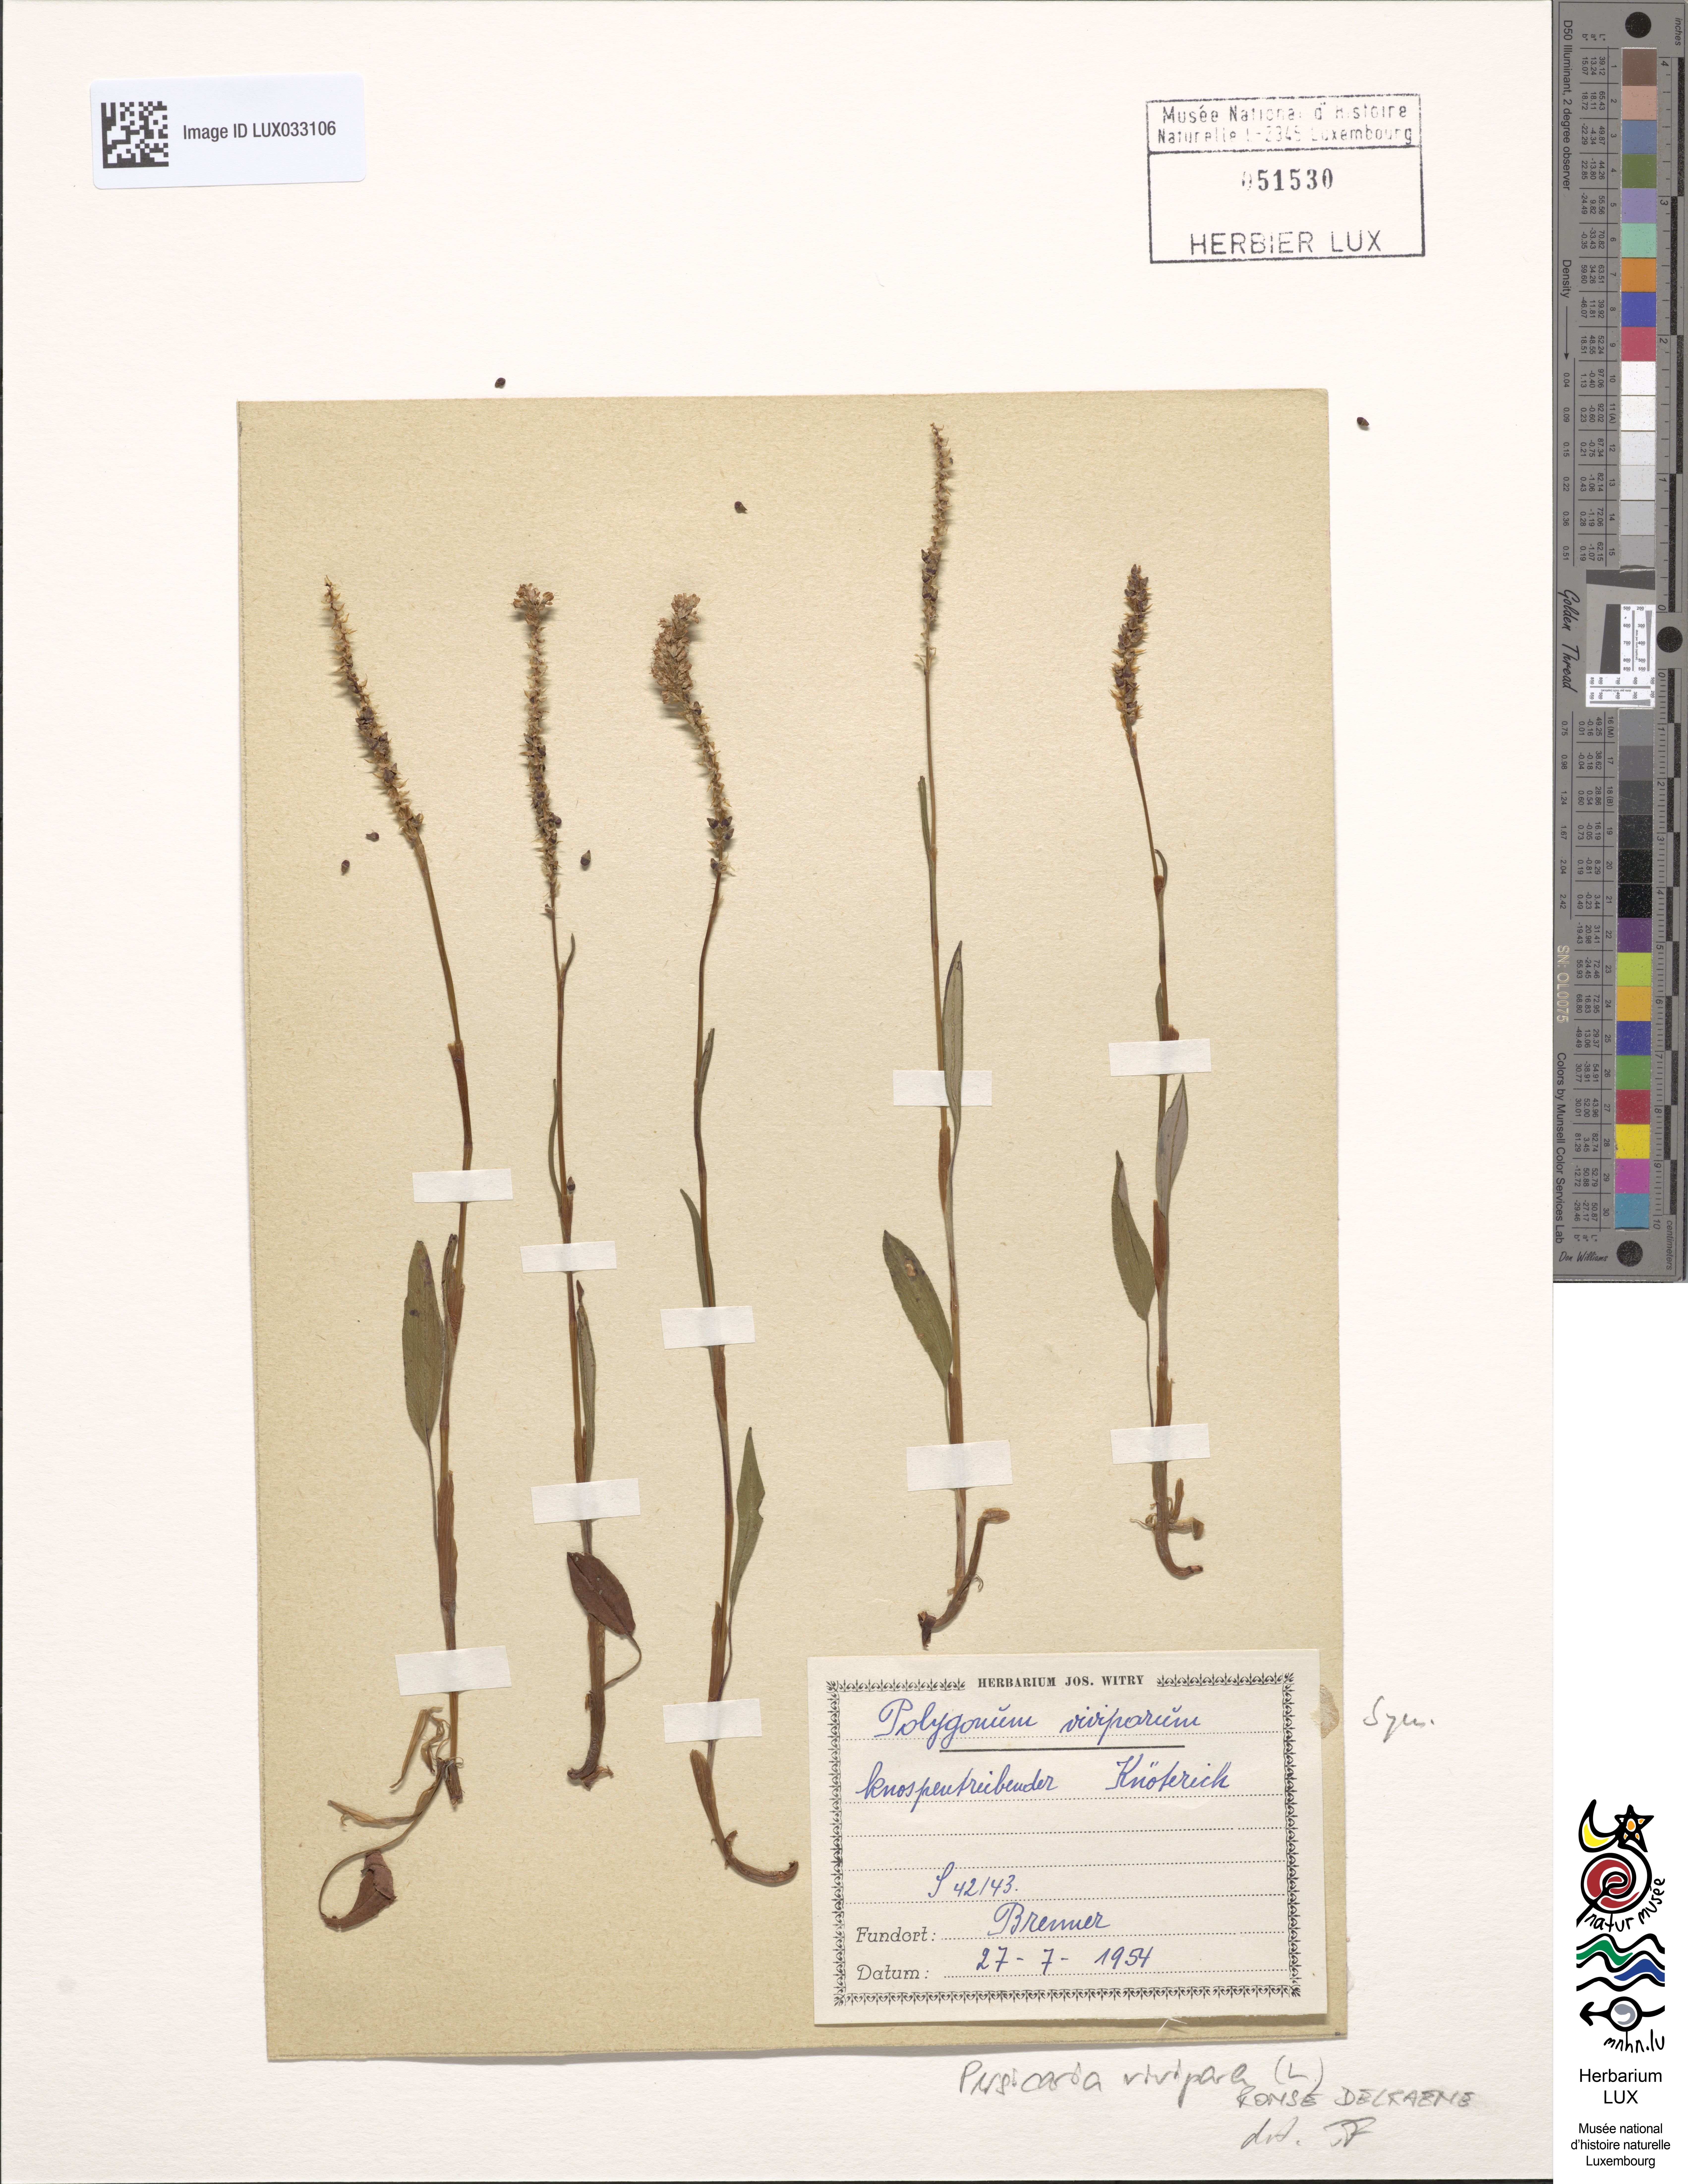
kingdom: Plantae
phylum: Tracheophyta
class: Magnoliopsida
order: Caryophyllales
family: Polygonaceae
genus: Bistorta
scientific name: Bistorta vivipara
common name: Alpine bistort
